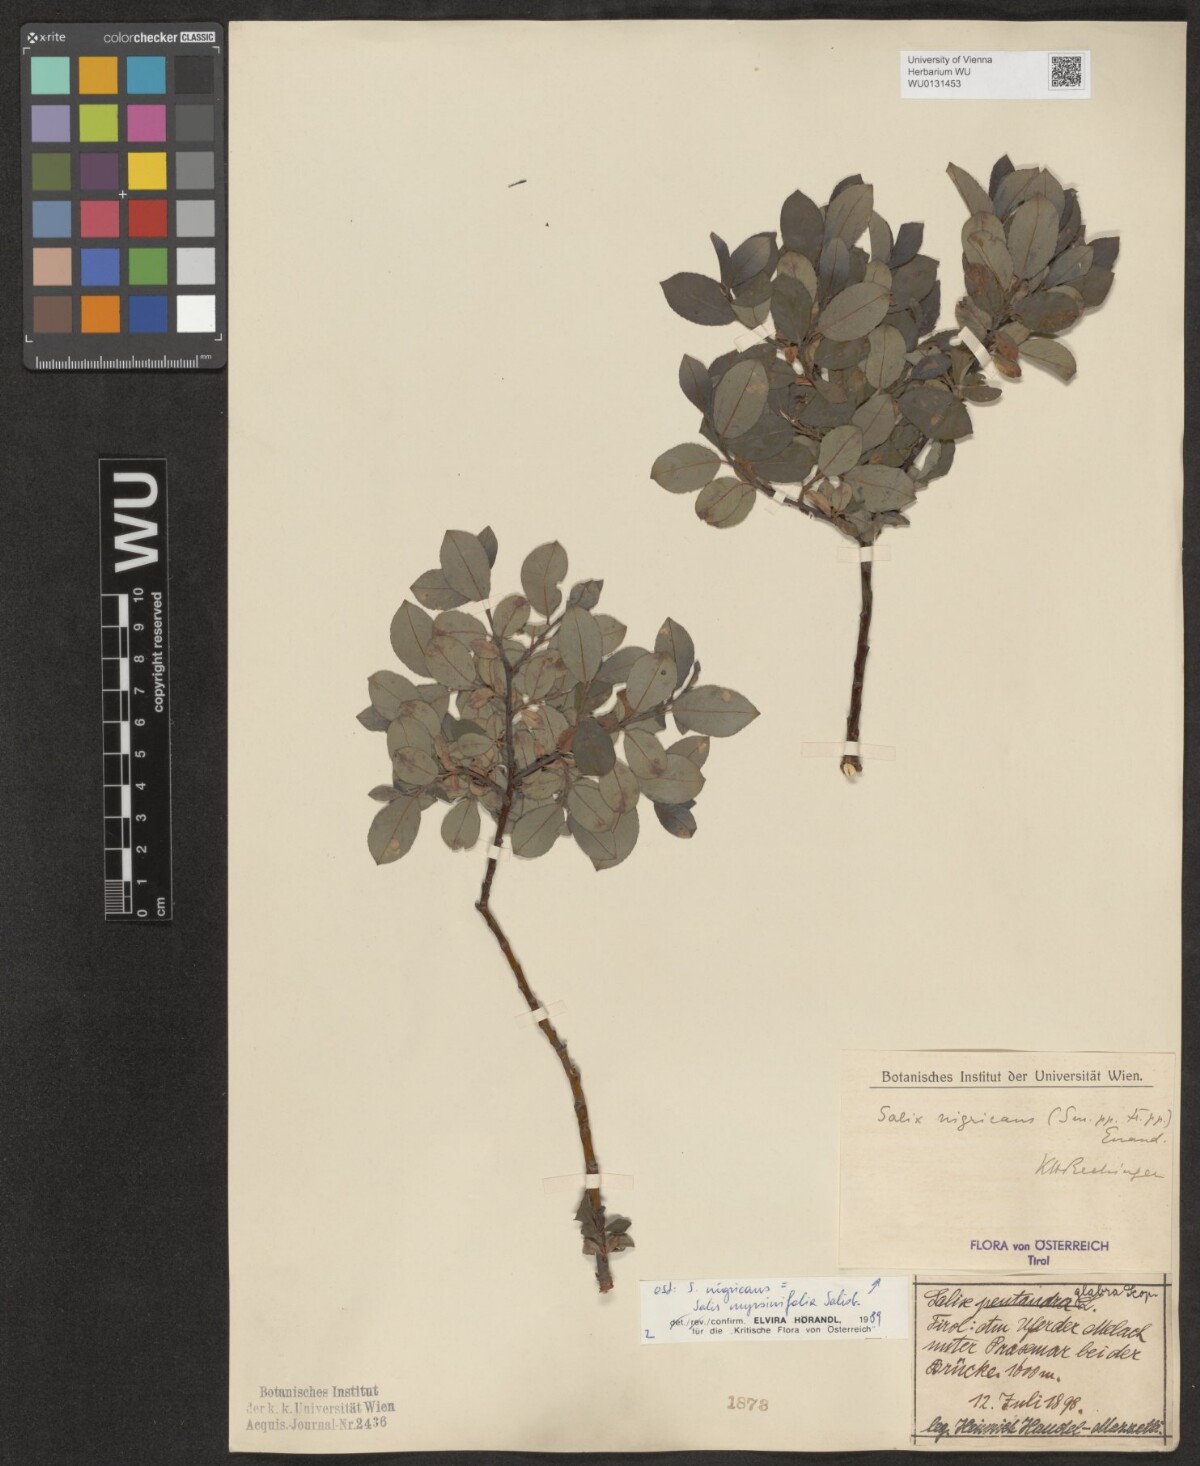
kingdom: Plantae
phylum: Tracheophyta
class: Magnoliopsida
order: Malpighiales
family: Salicaceae
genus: Salix
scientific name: Salix myrsinifolia
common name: Dark-leaved willow
